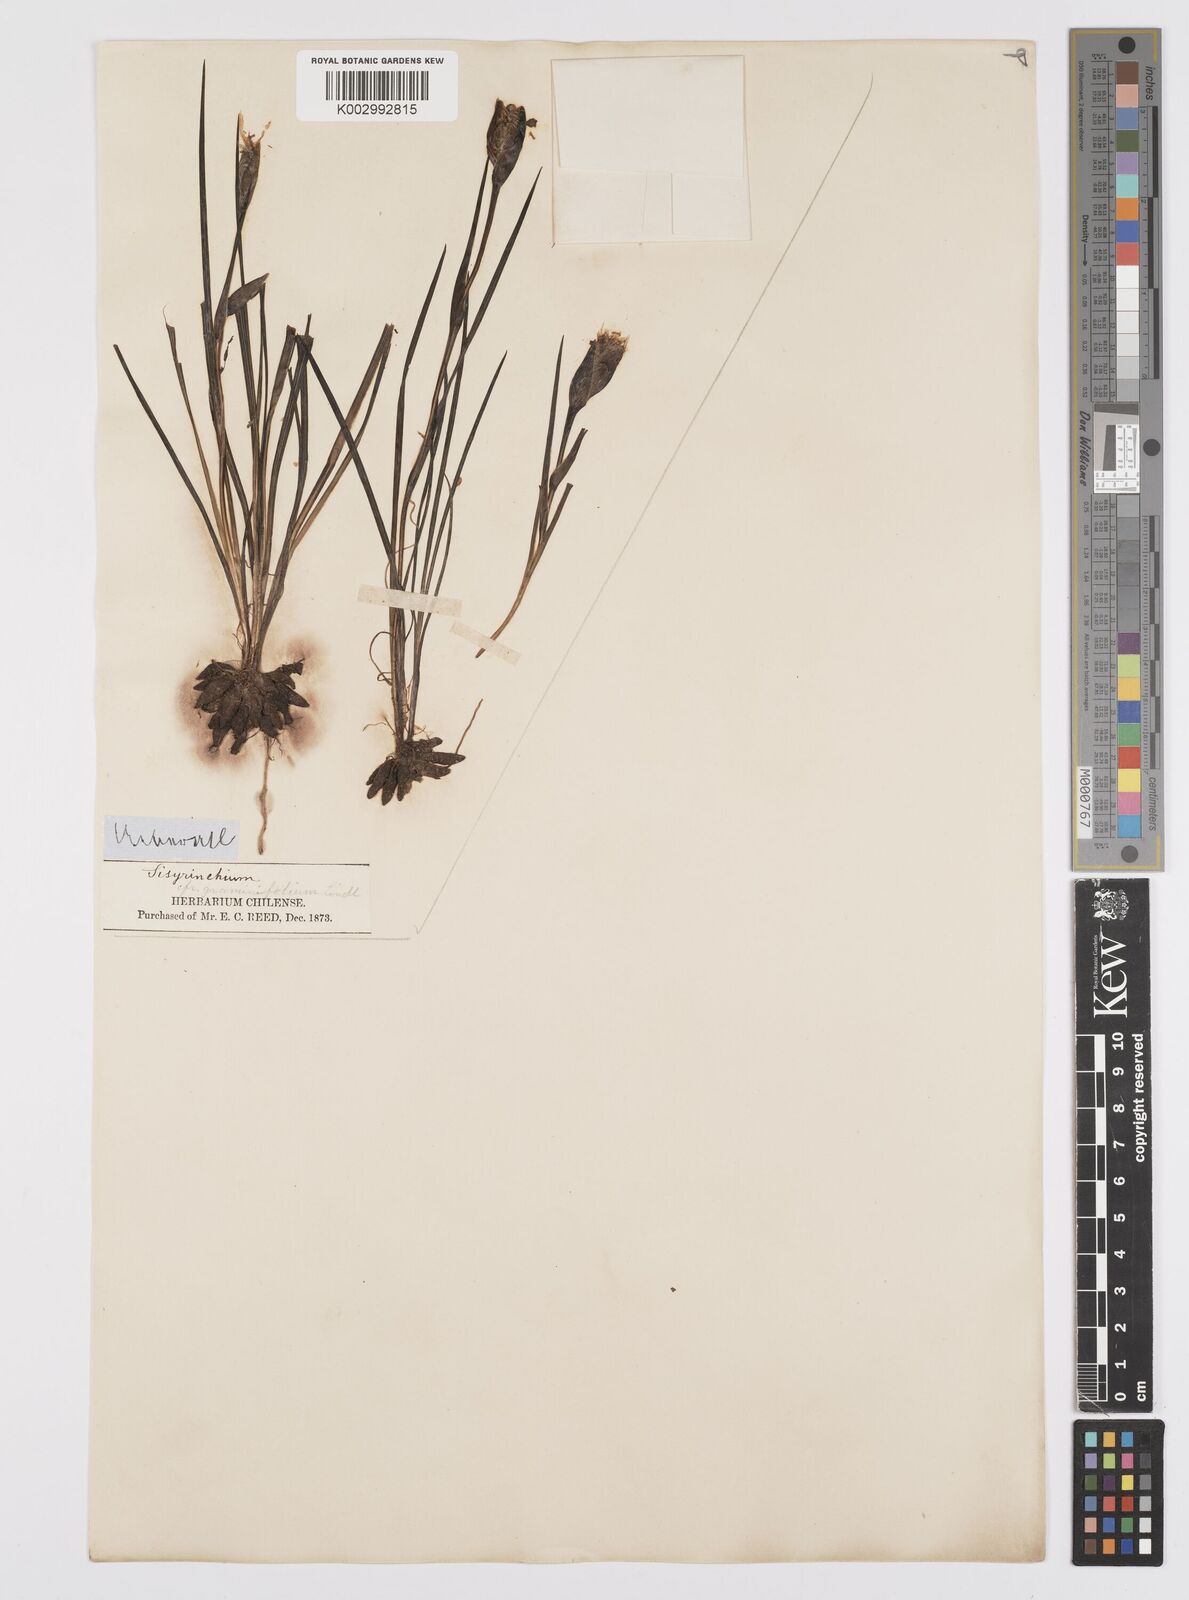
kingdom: Plantae
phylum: Tracheophyta
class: Liliopsida
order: Asparagales
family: Iridaceae
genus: Sisyrinchium
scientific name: Sisyrinchium graminifolium
